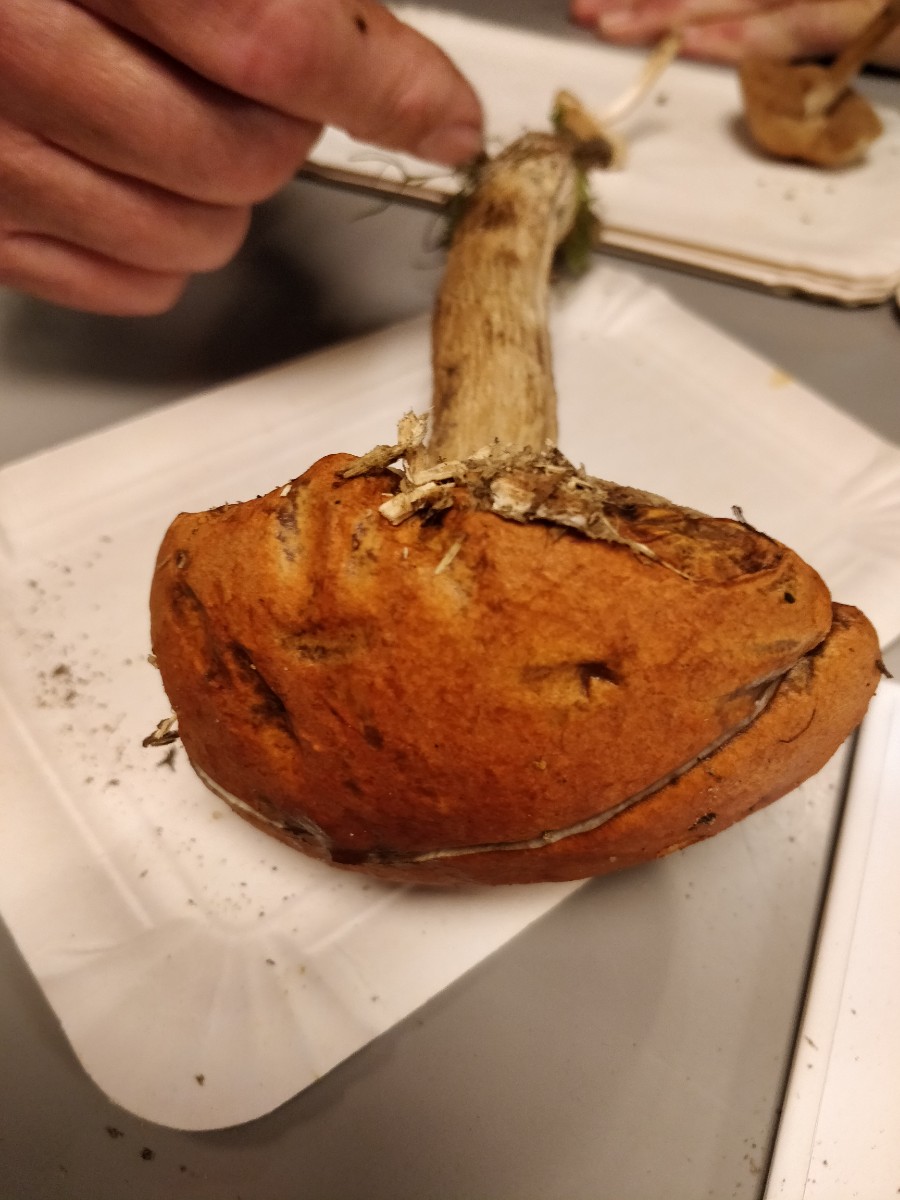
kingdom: Fungi
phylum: Basidiomycota
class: Agaricomycetes
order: Boletales
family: Boletaceae
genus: Leccinum
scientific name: Leccinum albostipitatum
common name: aspe-skælrørhat
